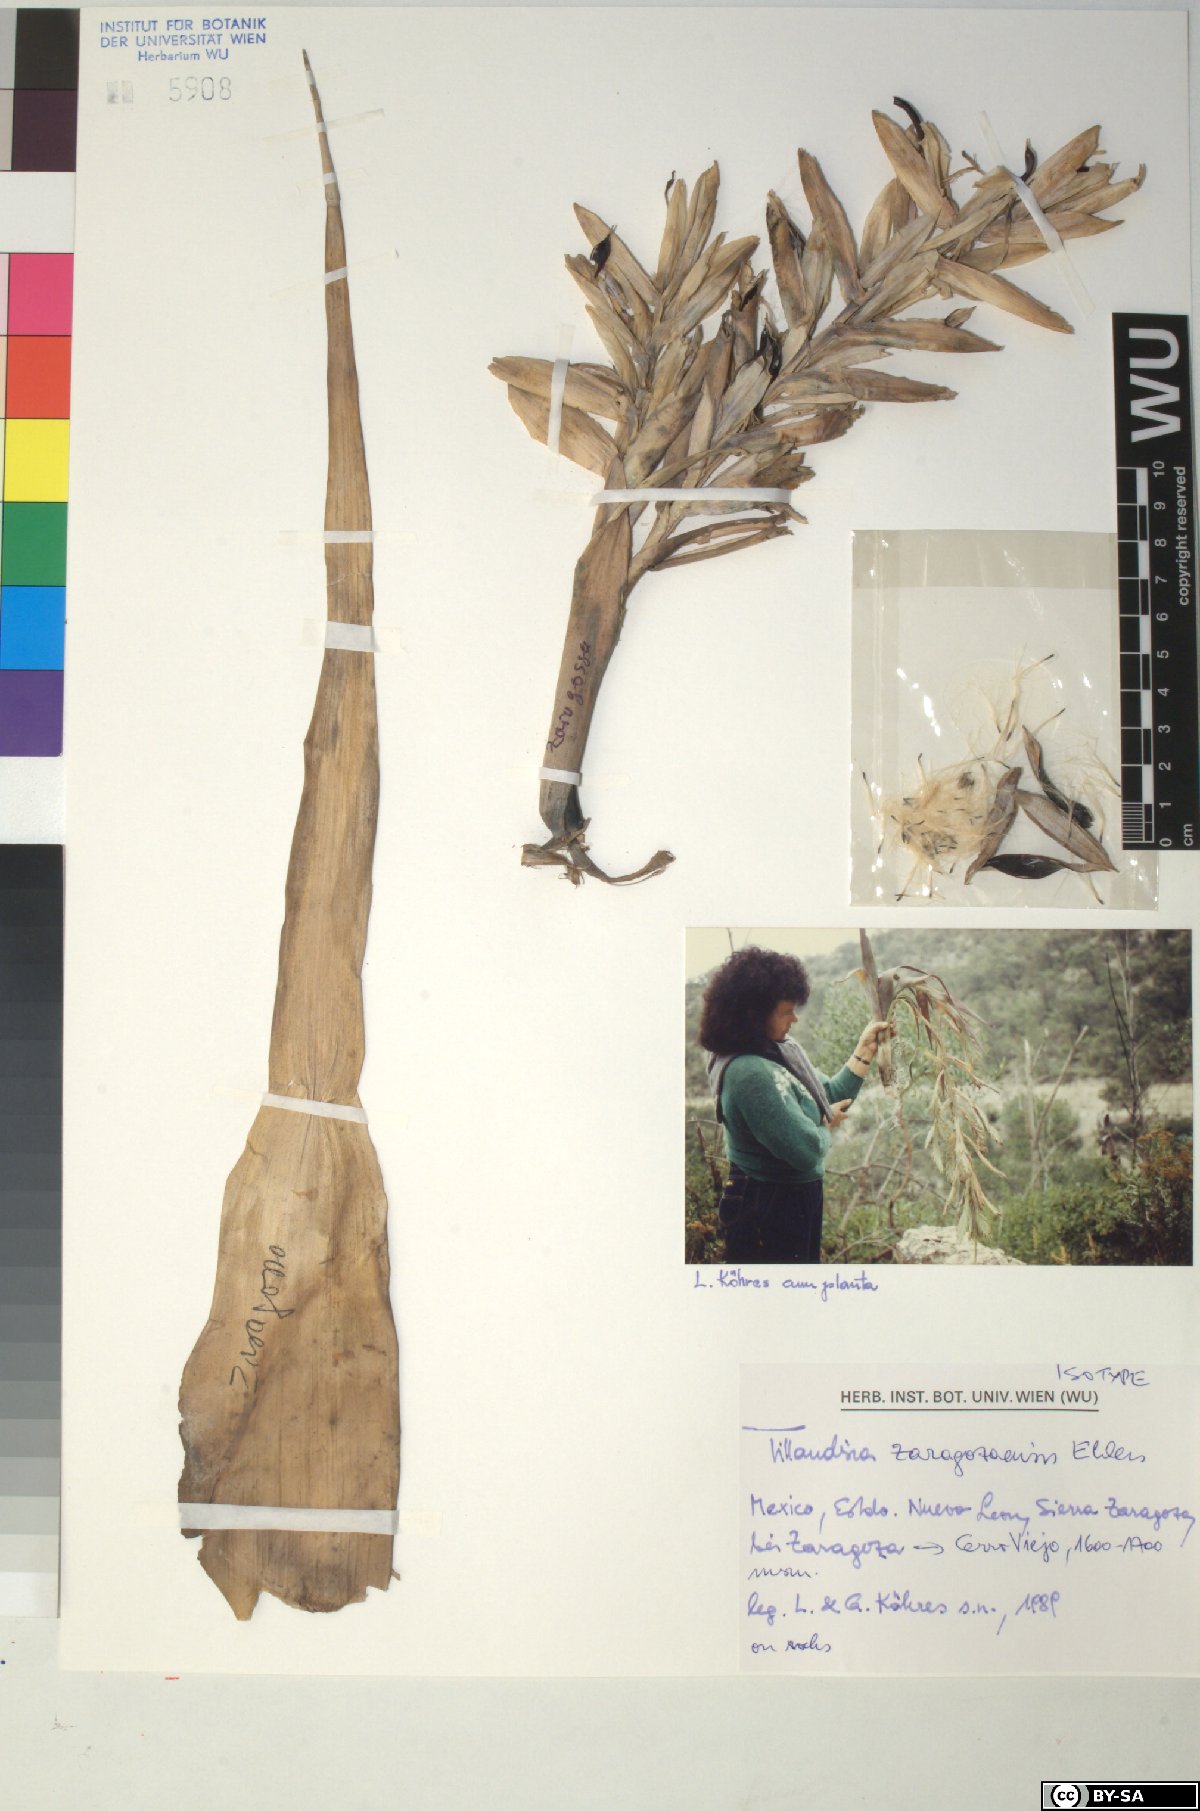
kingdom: Plantae
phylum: Tracheophyta
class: Liliopsida
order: Poales
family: Bromeliaceae
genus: Tillandsia
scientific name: Tillandsia zaragozaensis
